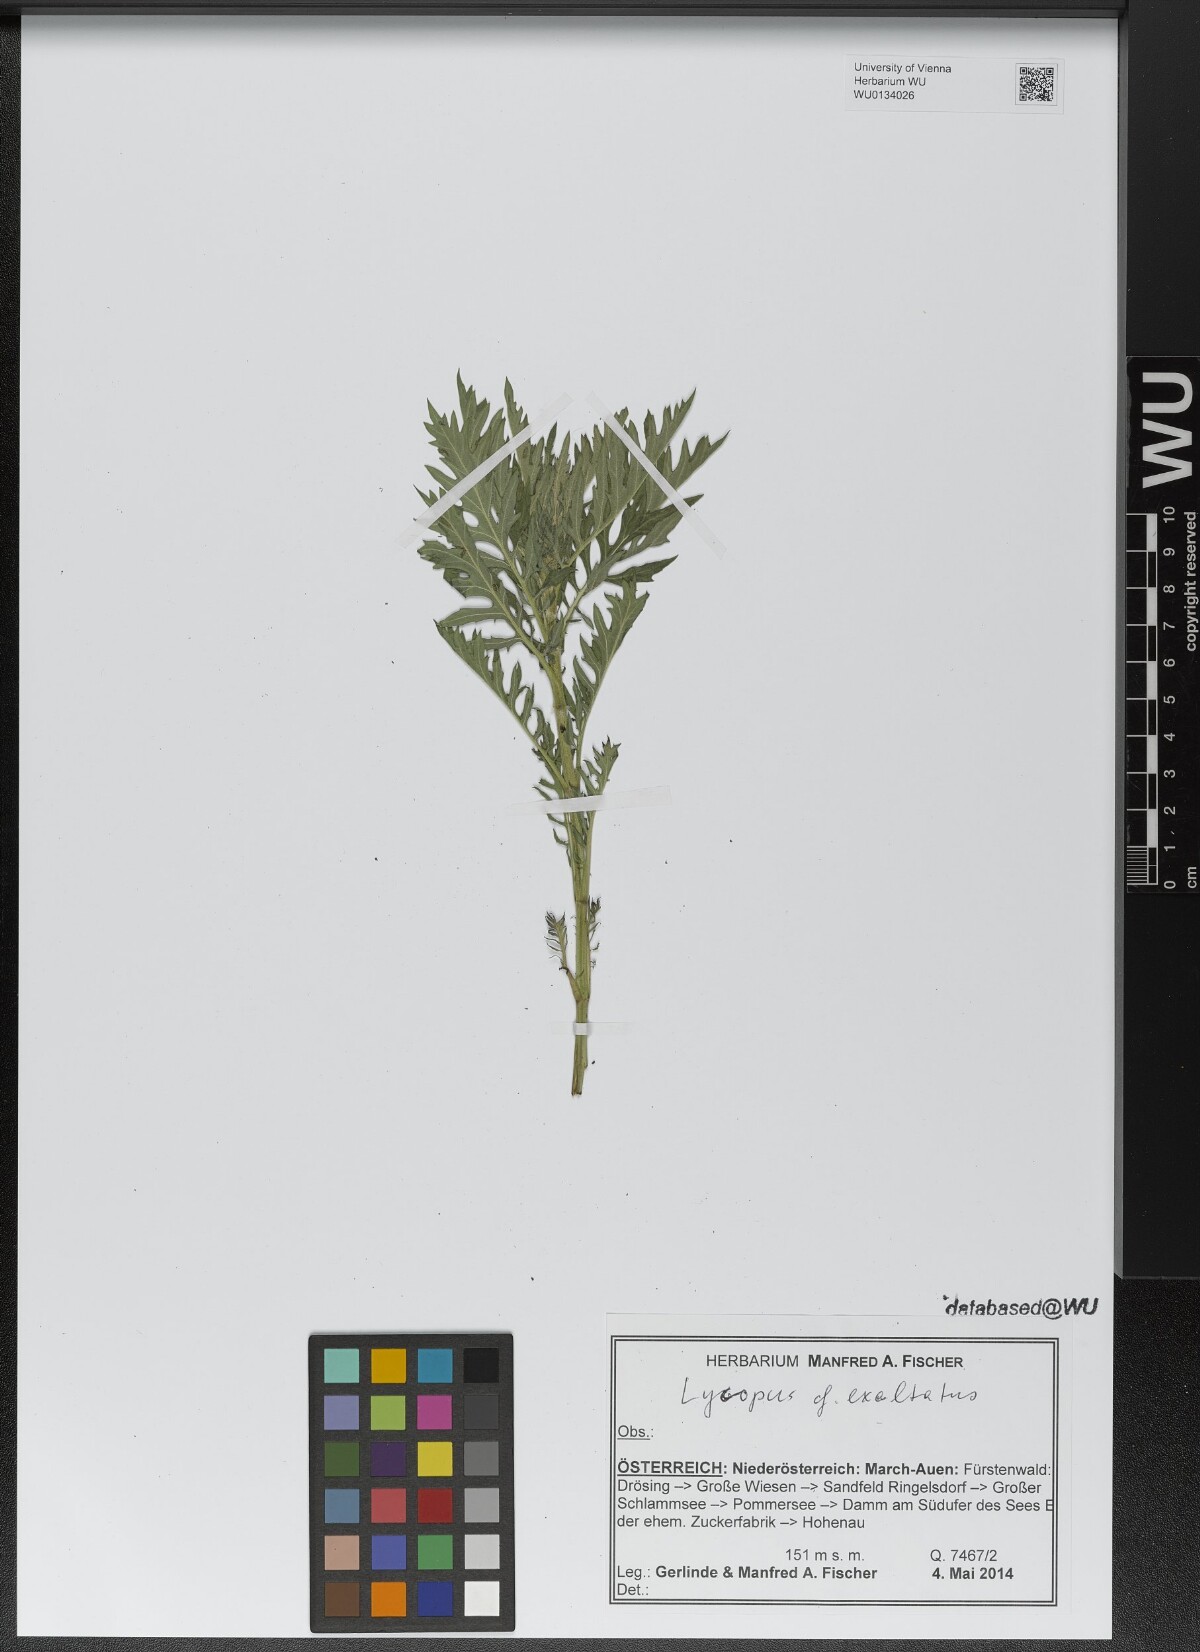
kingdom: Plantae
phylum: Tracheophyta
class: Magnoliopsida
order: Lamiales
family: Lamiaceae
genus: Lycopus
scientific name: Lycopus exaltatus
